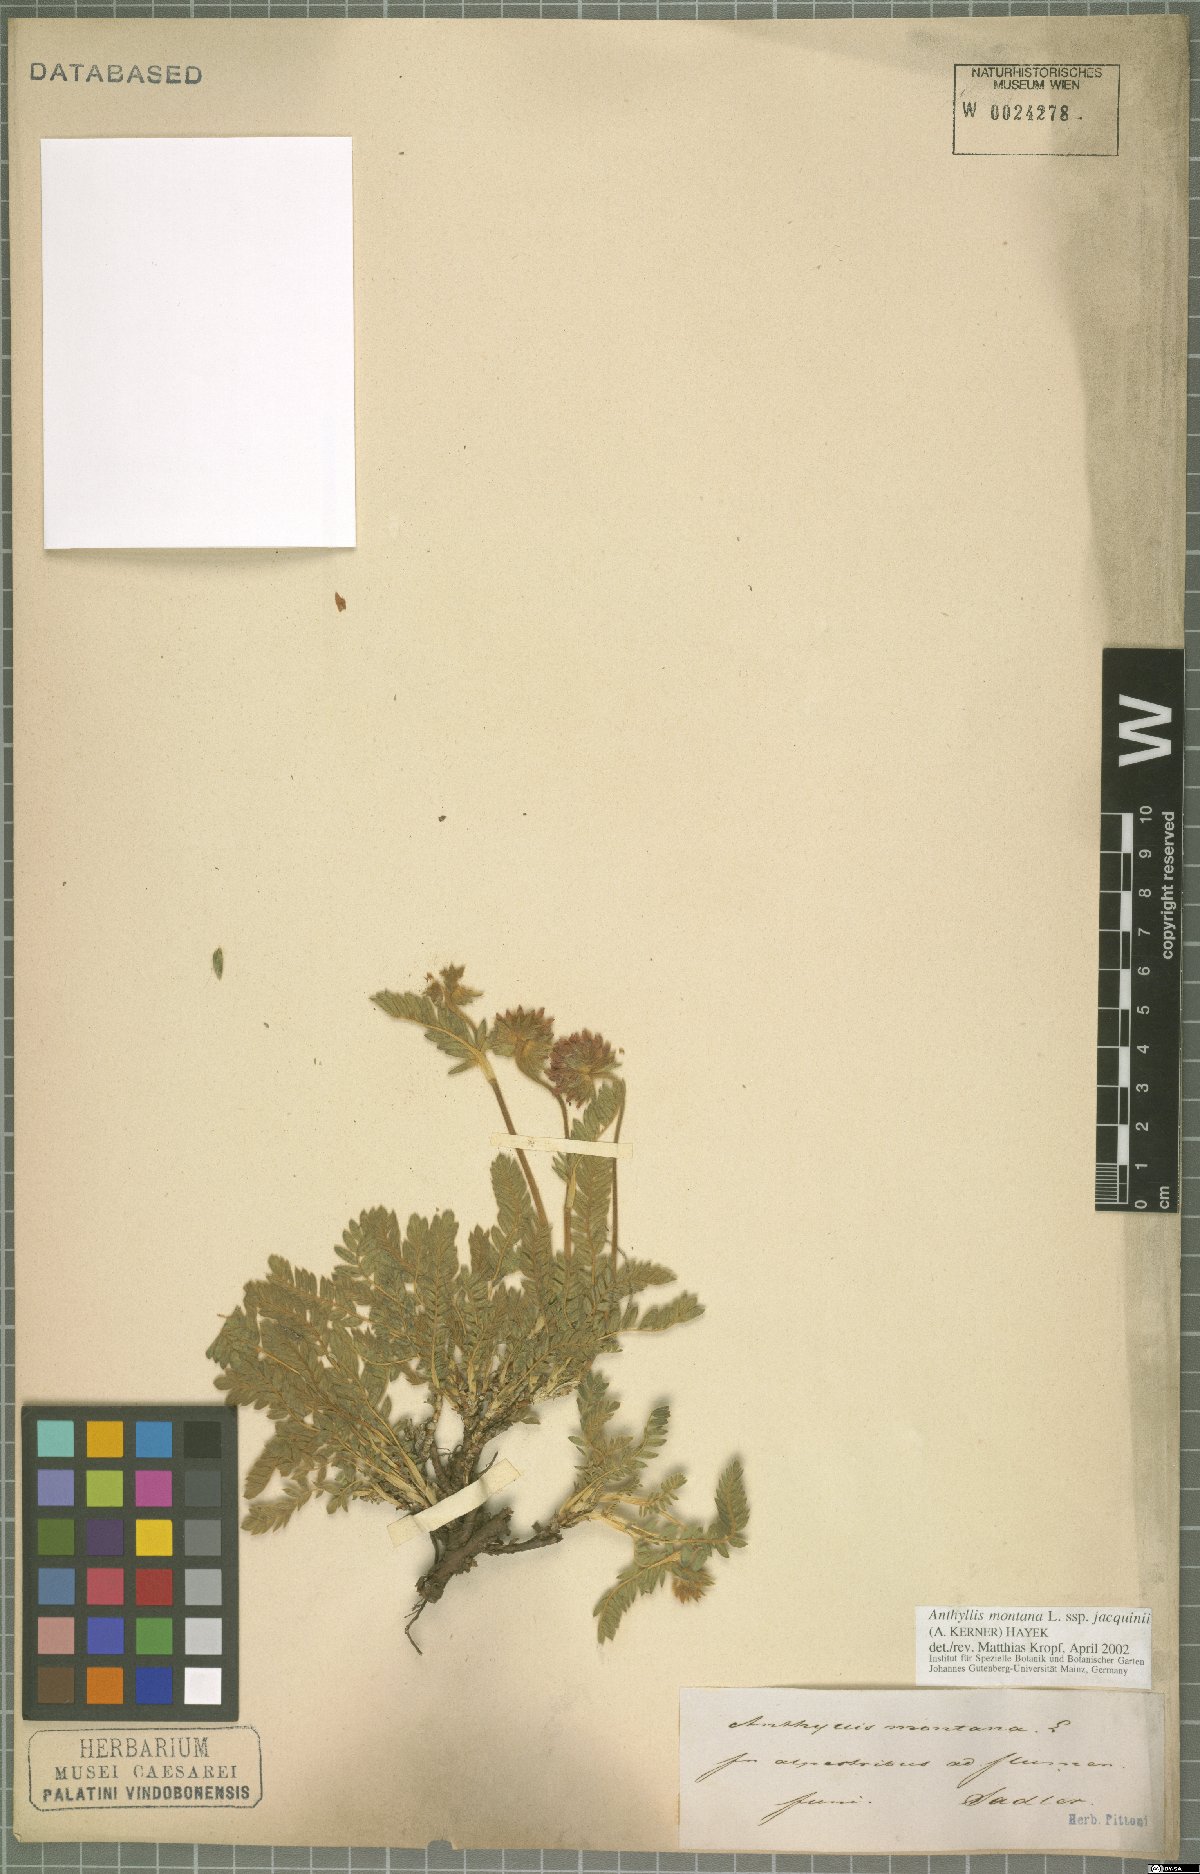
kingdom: Plantae
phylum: Tracheophyta
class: Magnoliopsida
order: Fabales
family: Fabaceae
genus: Anthyllis
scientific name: Anthyllis montana
